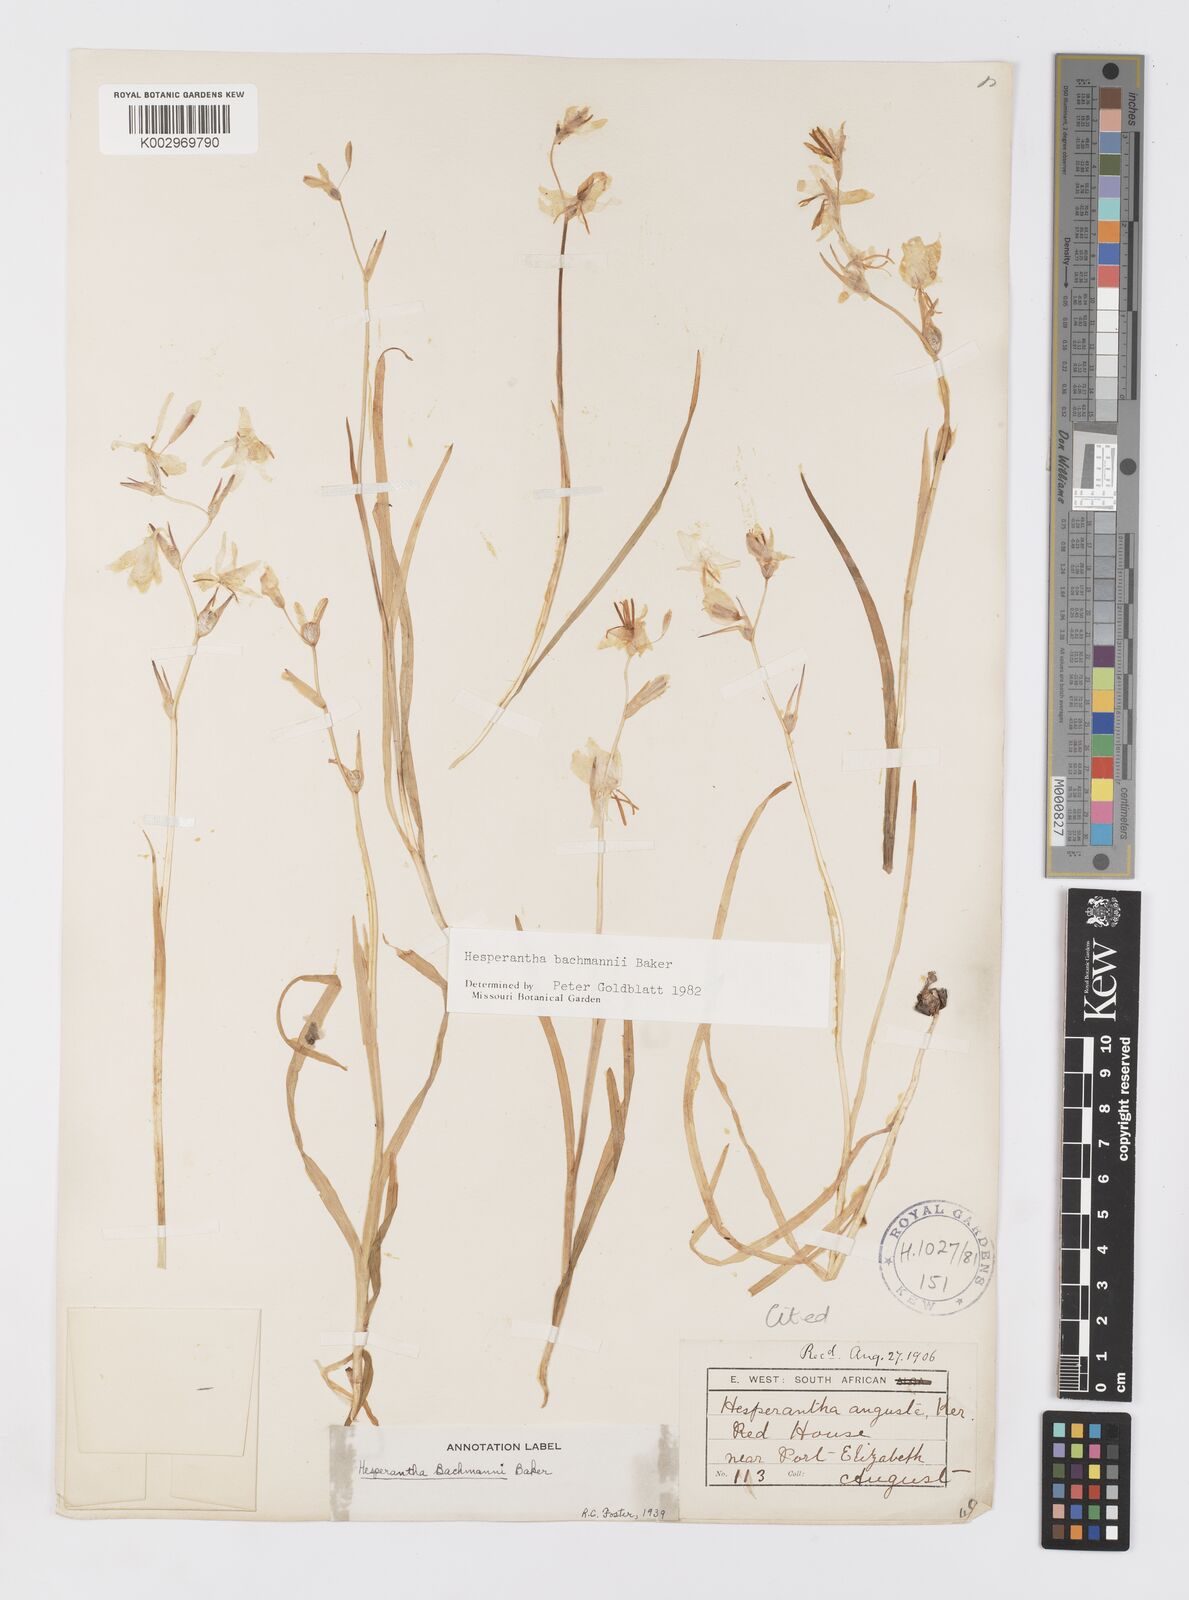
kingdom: Plantae
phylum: Tracheophyta
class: Liliopsida
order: Asparagales
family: Iridaceae
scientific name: Iridaceae
